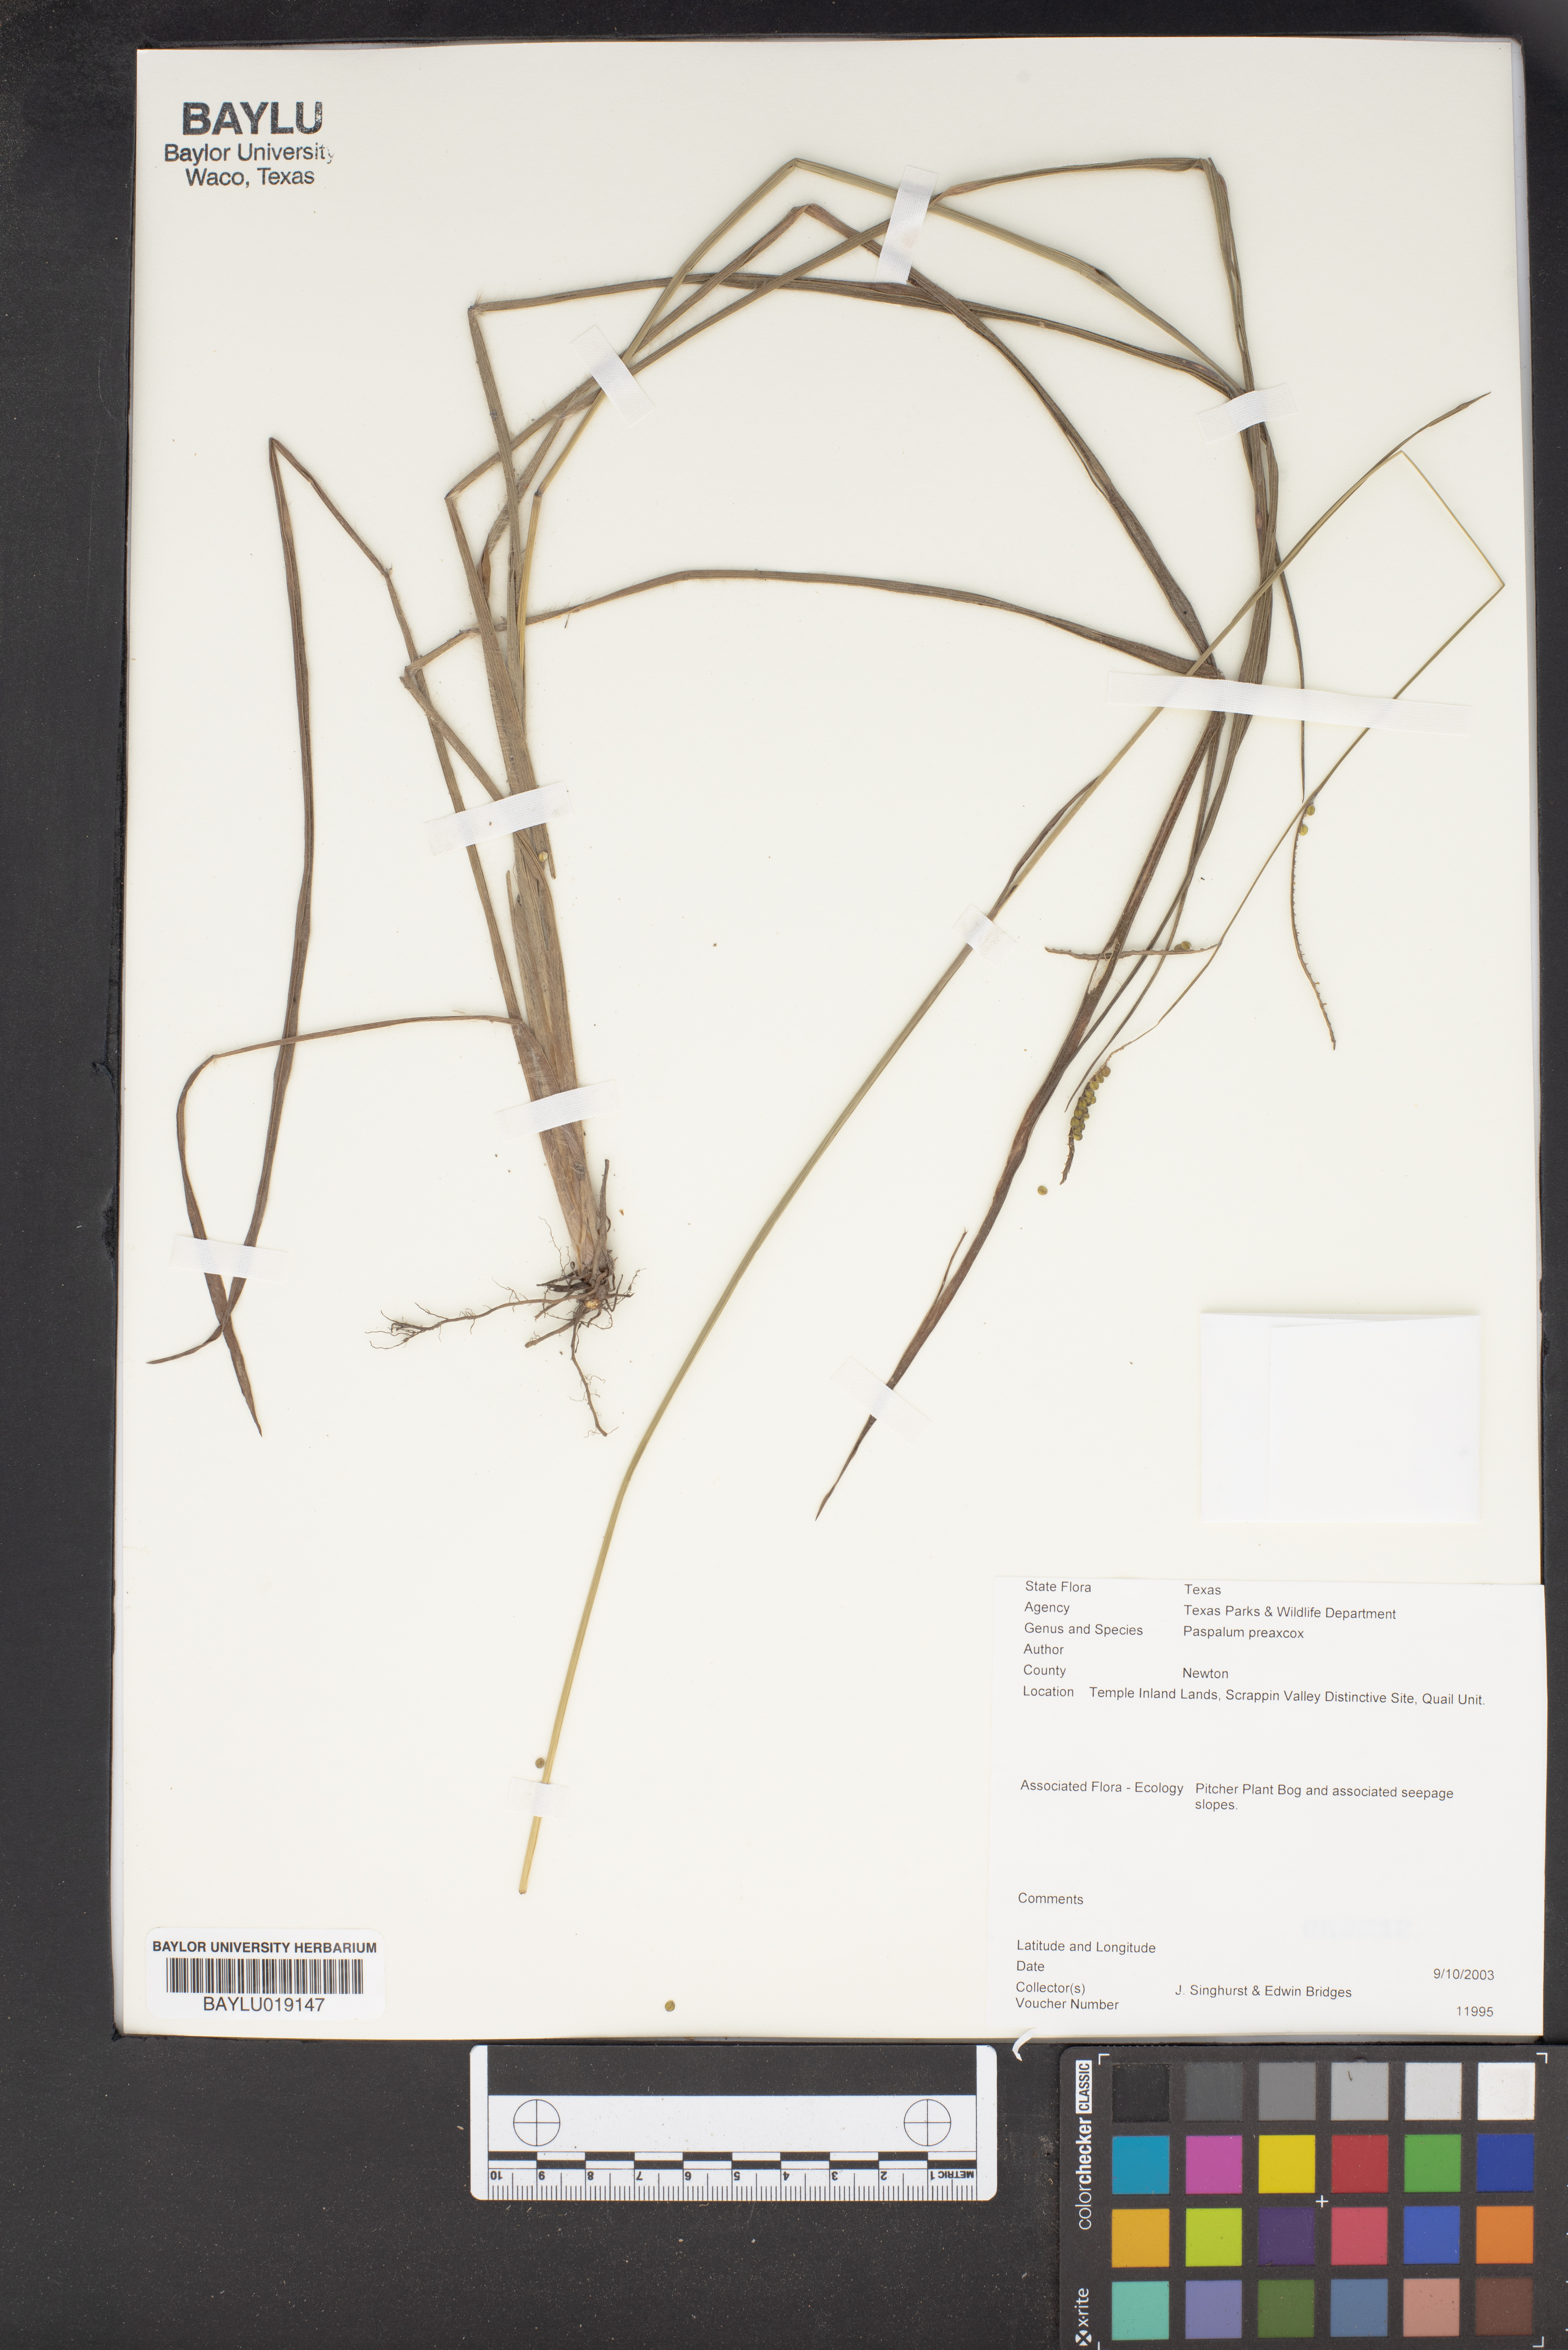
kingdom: Plantae
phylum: Tracheophyta
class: Liliopsida
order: Poales
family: Poaceae
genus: Paspalum
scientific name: Paspalum praecox
